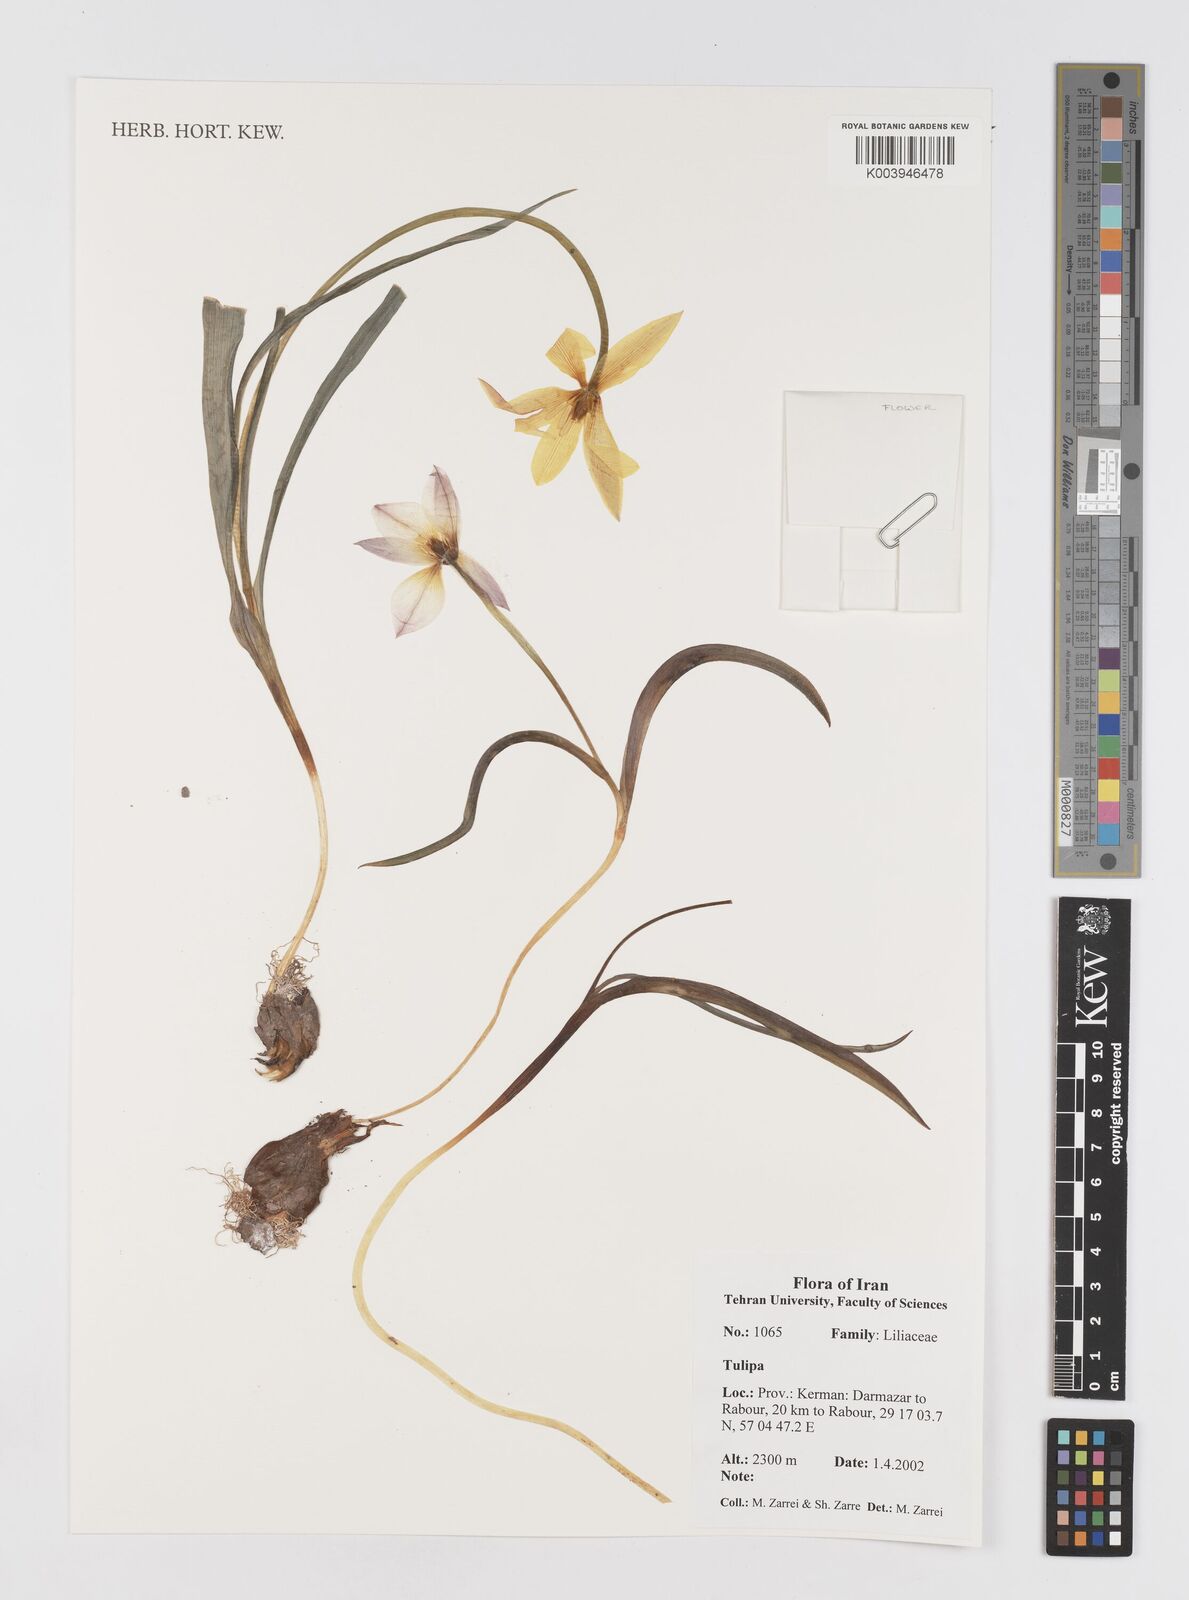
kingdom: Plantae
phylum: Tracheophyta
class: Liliopsida
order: Liliales
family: Liliaceae
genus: Tulipa
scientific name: Tulipa
